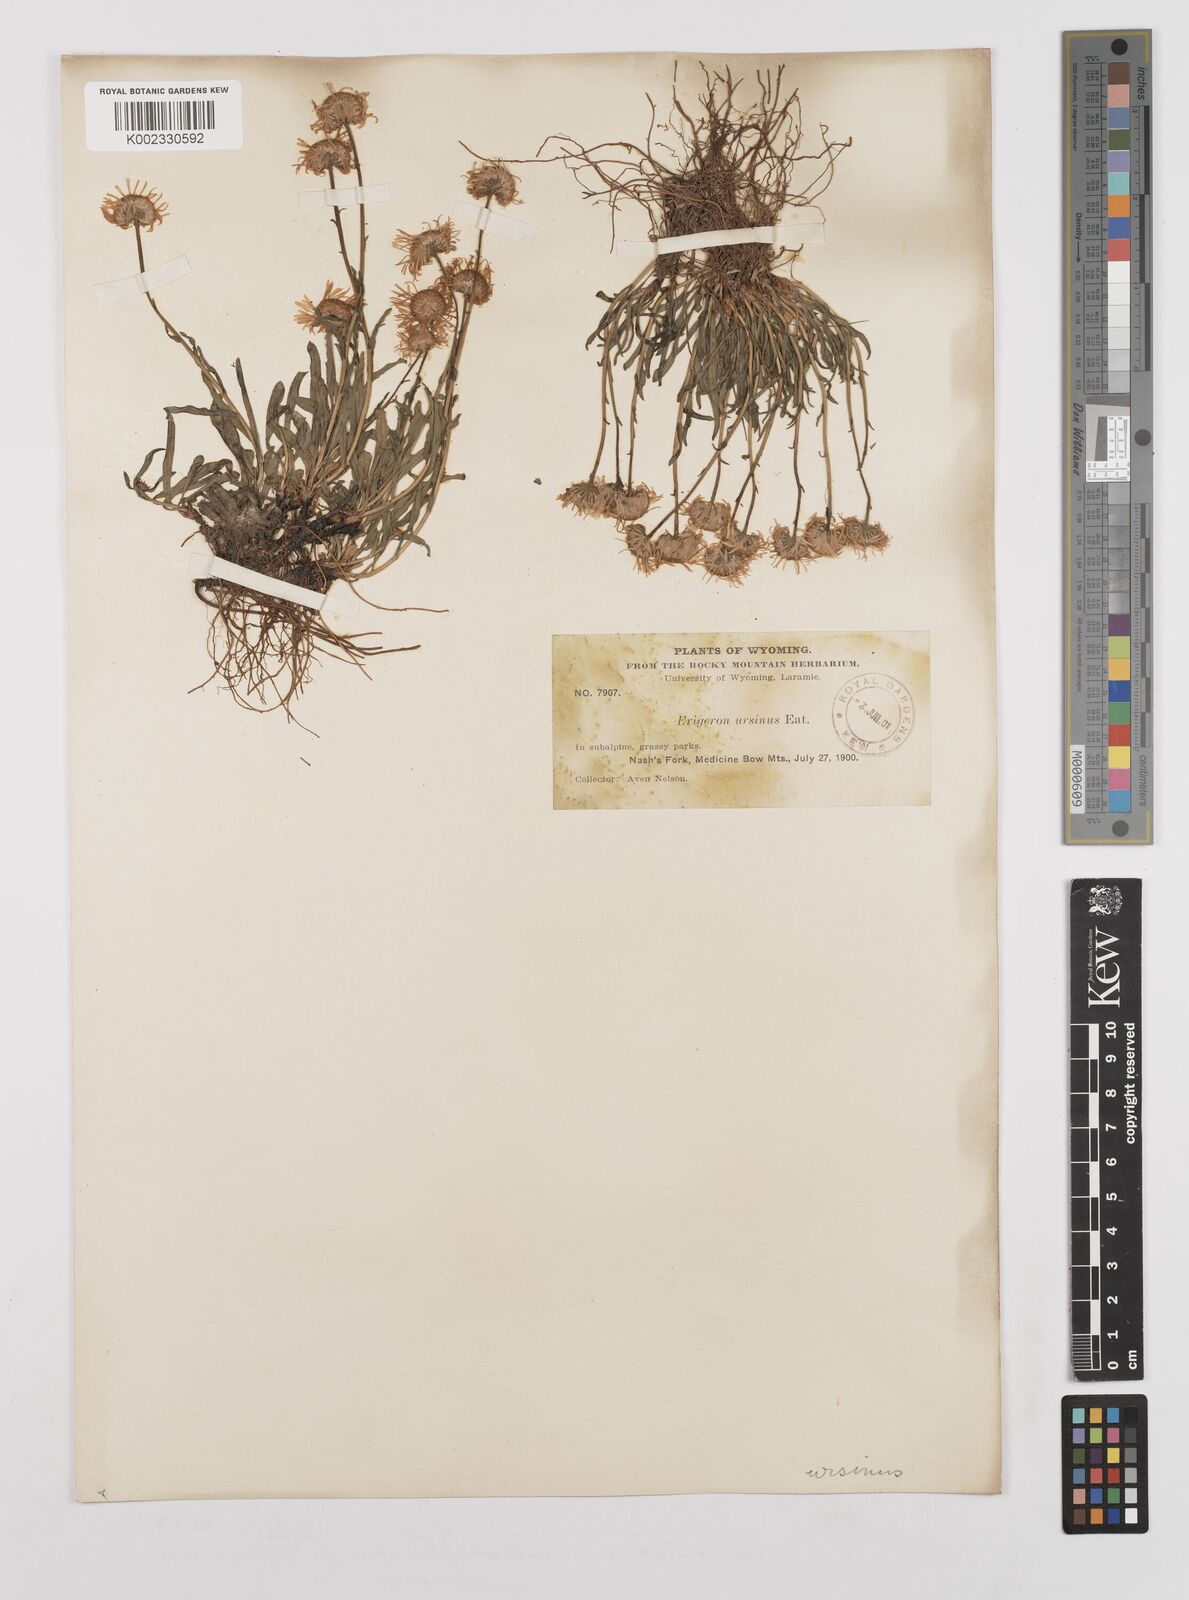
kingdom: Plantae
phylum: Tracheophyta
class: Magnoliopsida
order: Asterales
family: Asteraceae
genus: Erigeron
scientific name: Erigeron ursinus
